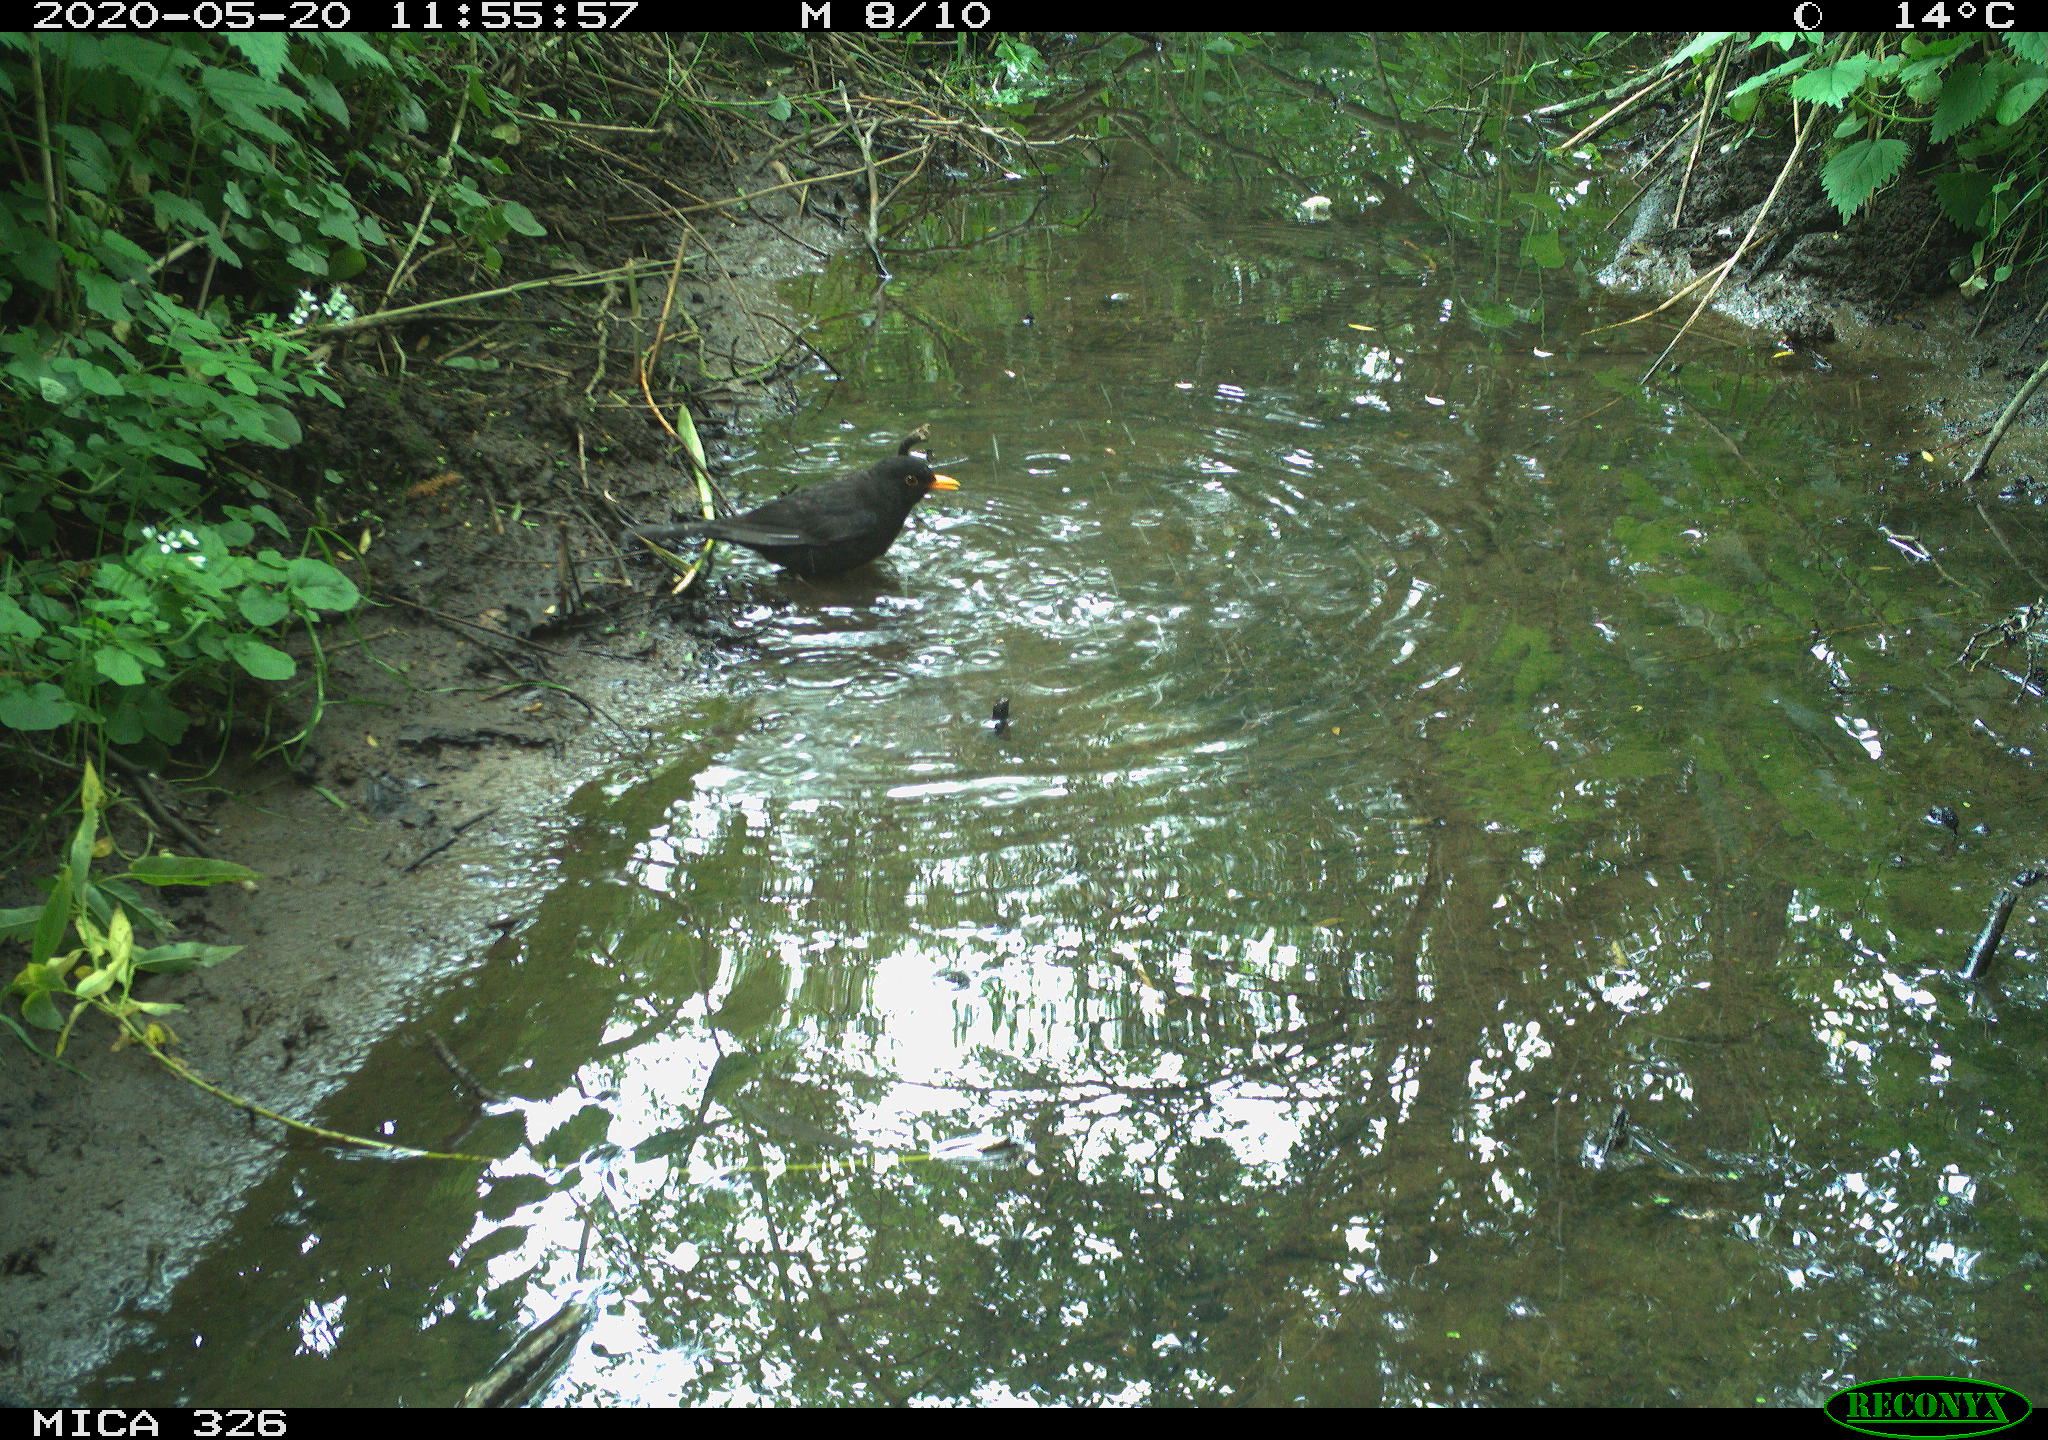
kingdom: Animalia
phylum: Chordata
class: Aves
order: Passeriformes
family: Turdidae
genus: Turdus
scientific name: Turdus merula
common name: Common blackbird
